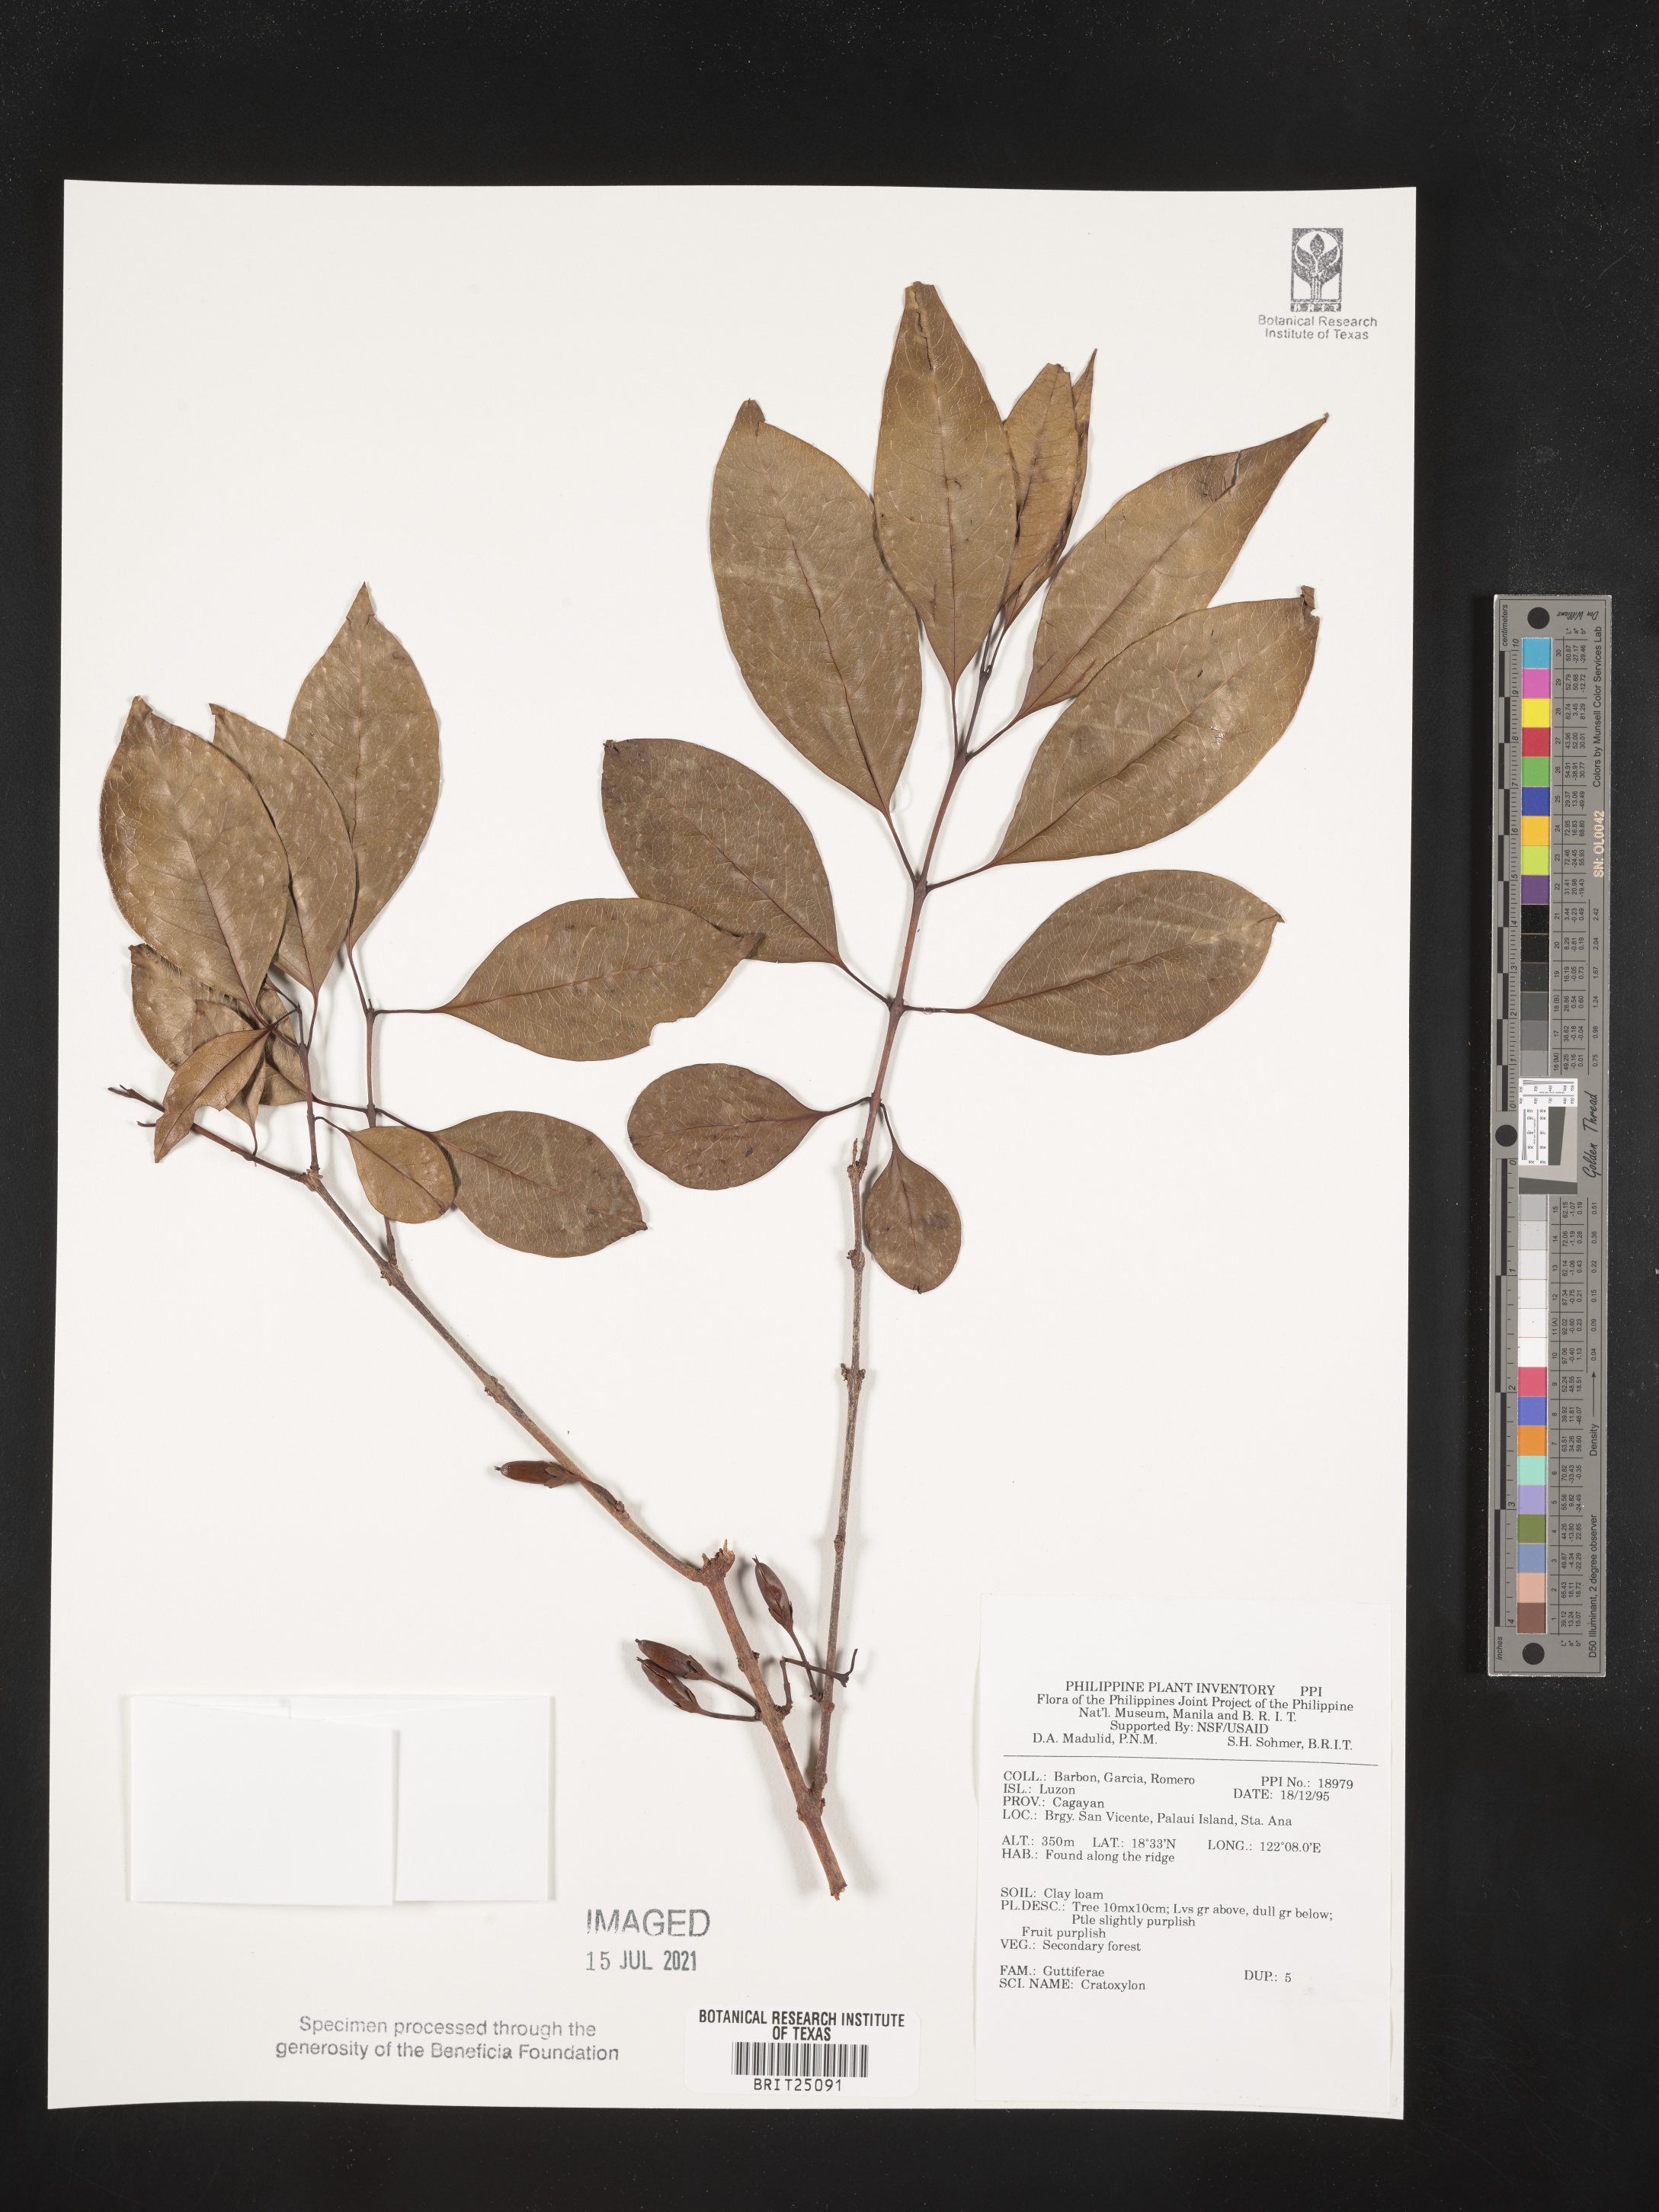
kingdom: Plantae
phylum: Tracheophyta
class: Magnoliopsida
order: Malpighiales
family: Hypericaceae
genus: Cratoxylum
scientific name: Cratoxylum
